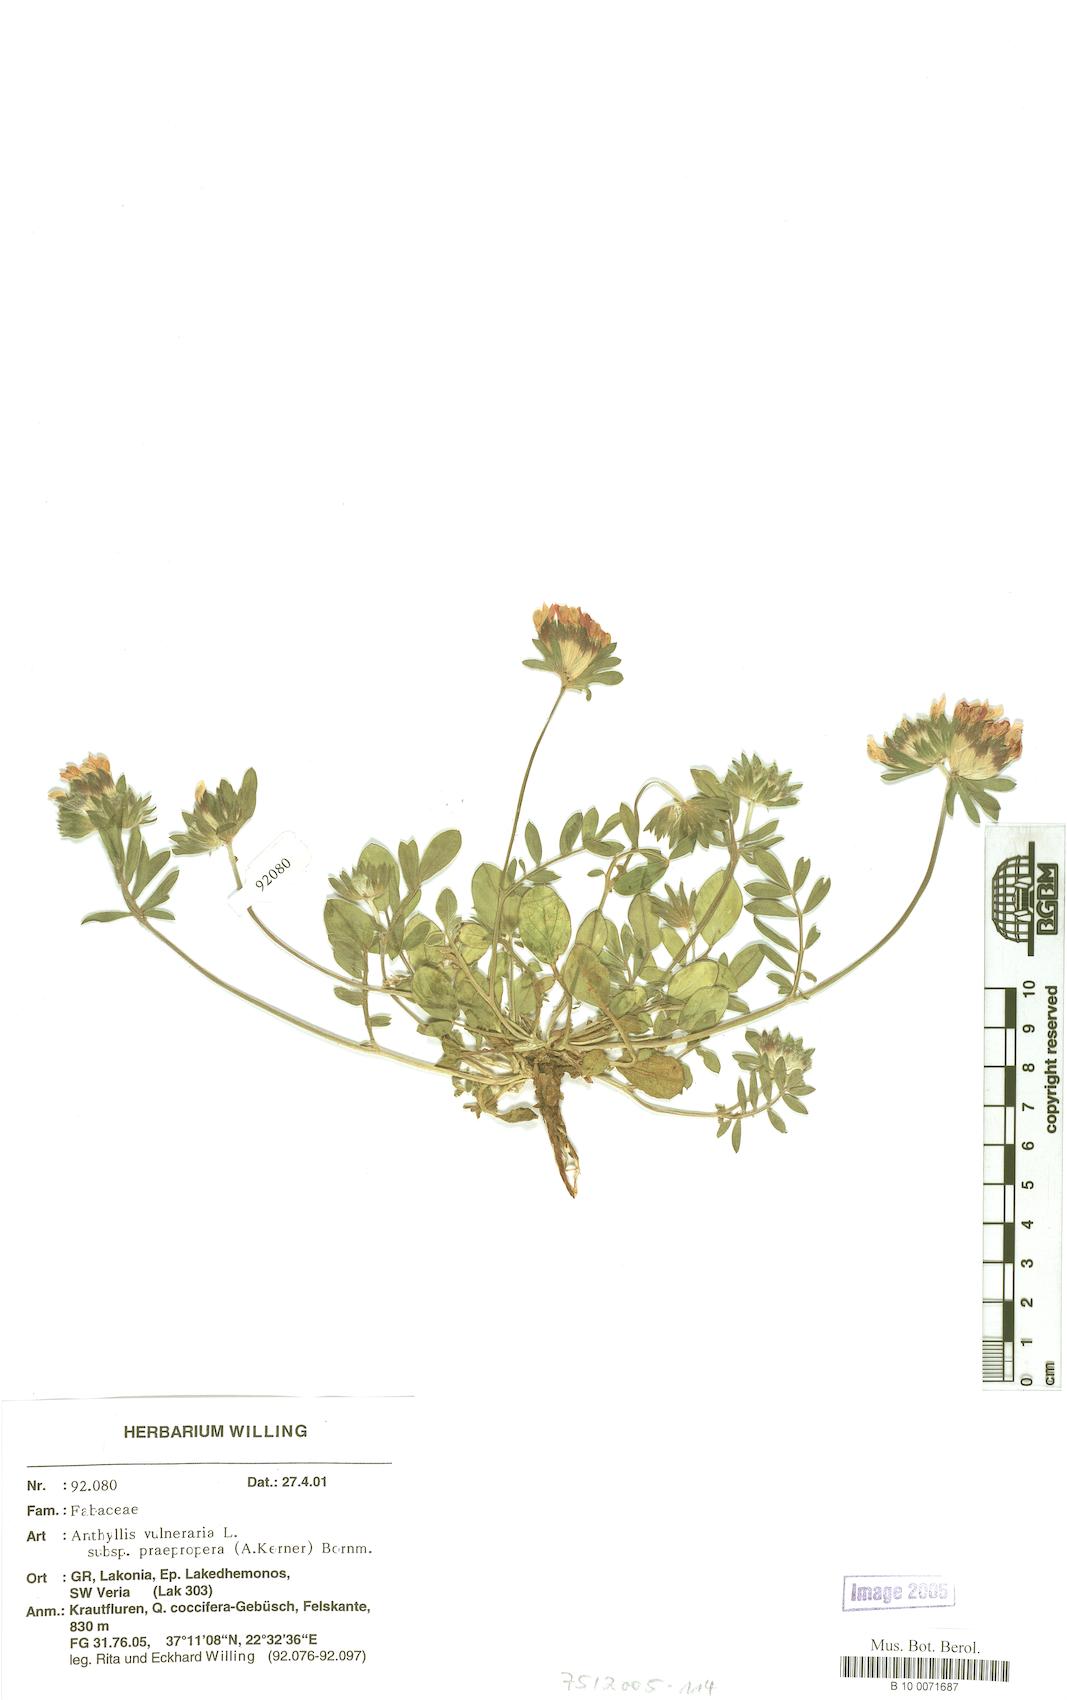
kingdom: Plantae
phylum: Tracheophyta
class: Magnoliopsida
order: Fabales
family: Fabaceae
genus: Anthyllis
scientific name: Anthyllis vulneraria
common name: Kidney vetch
